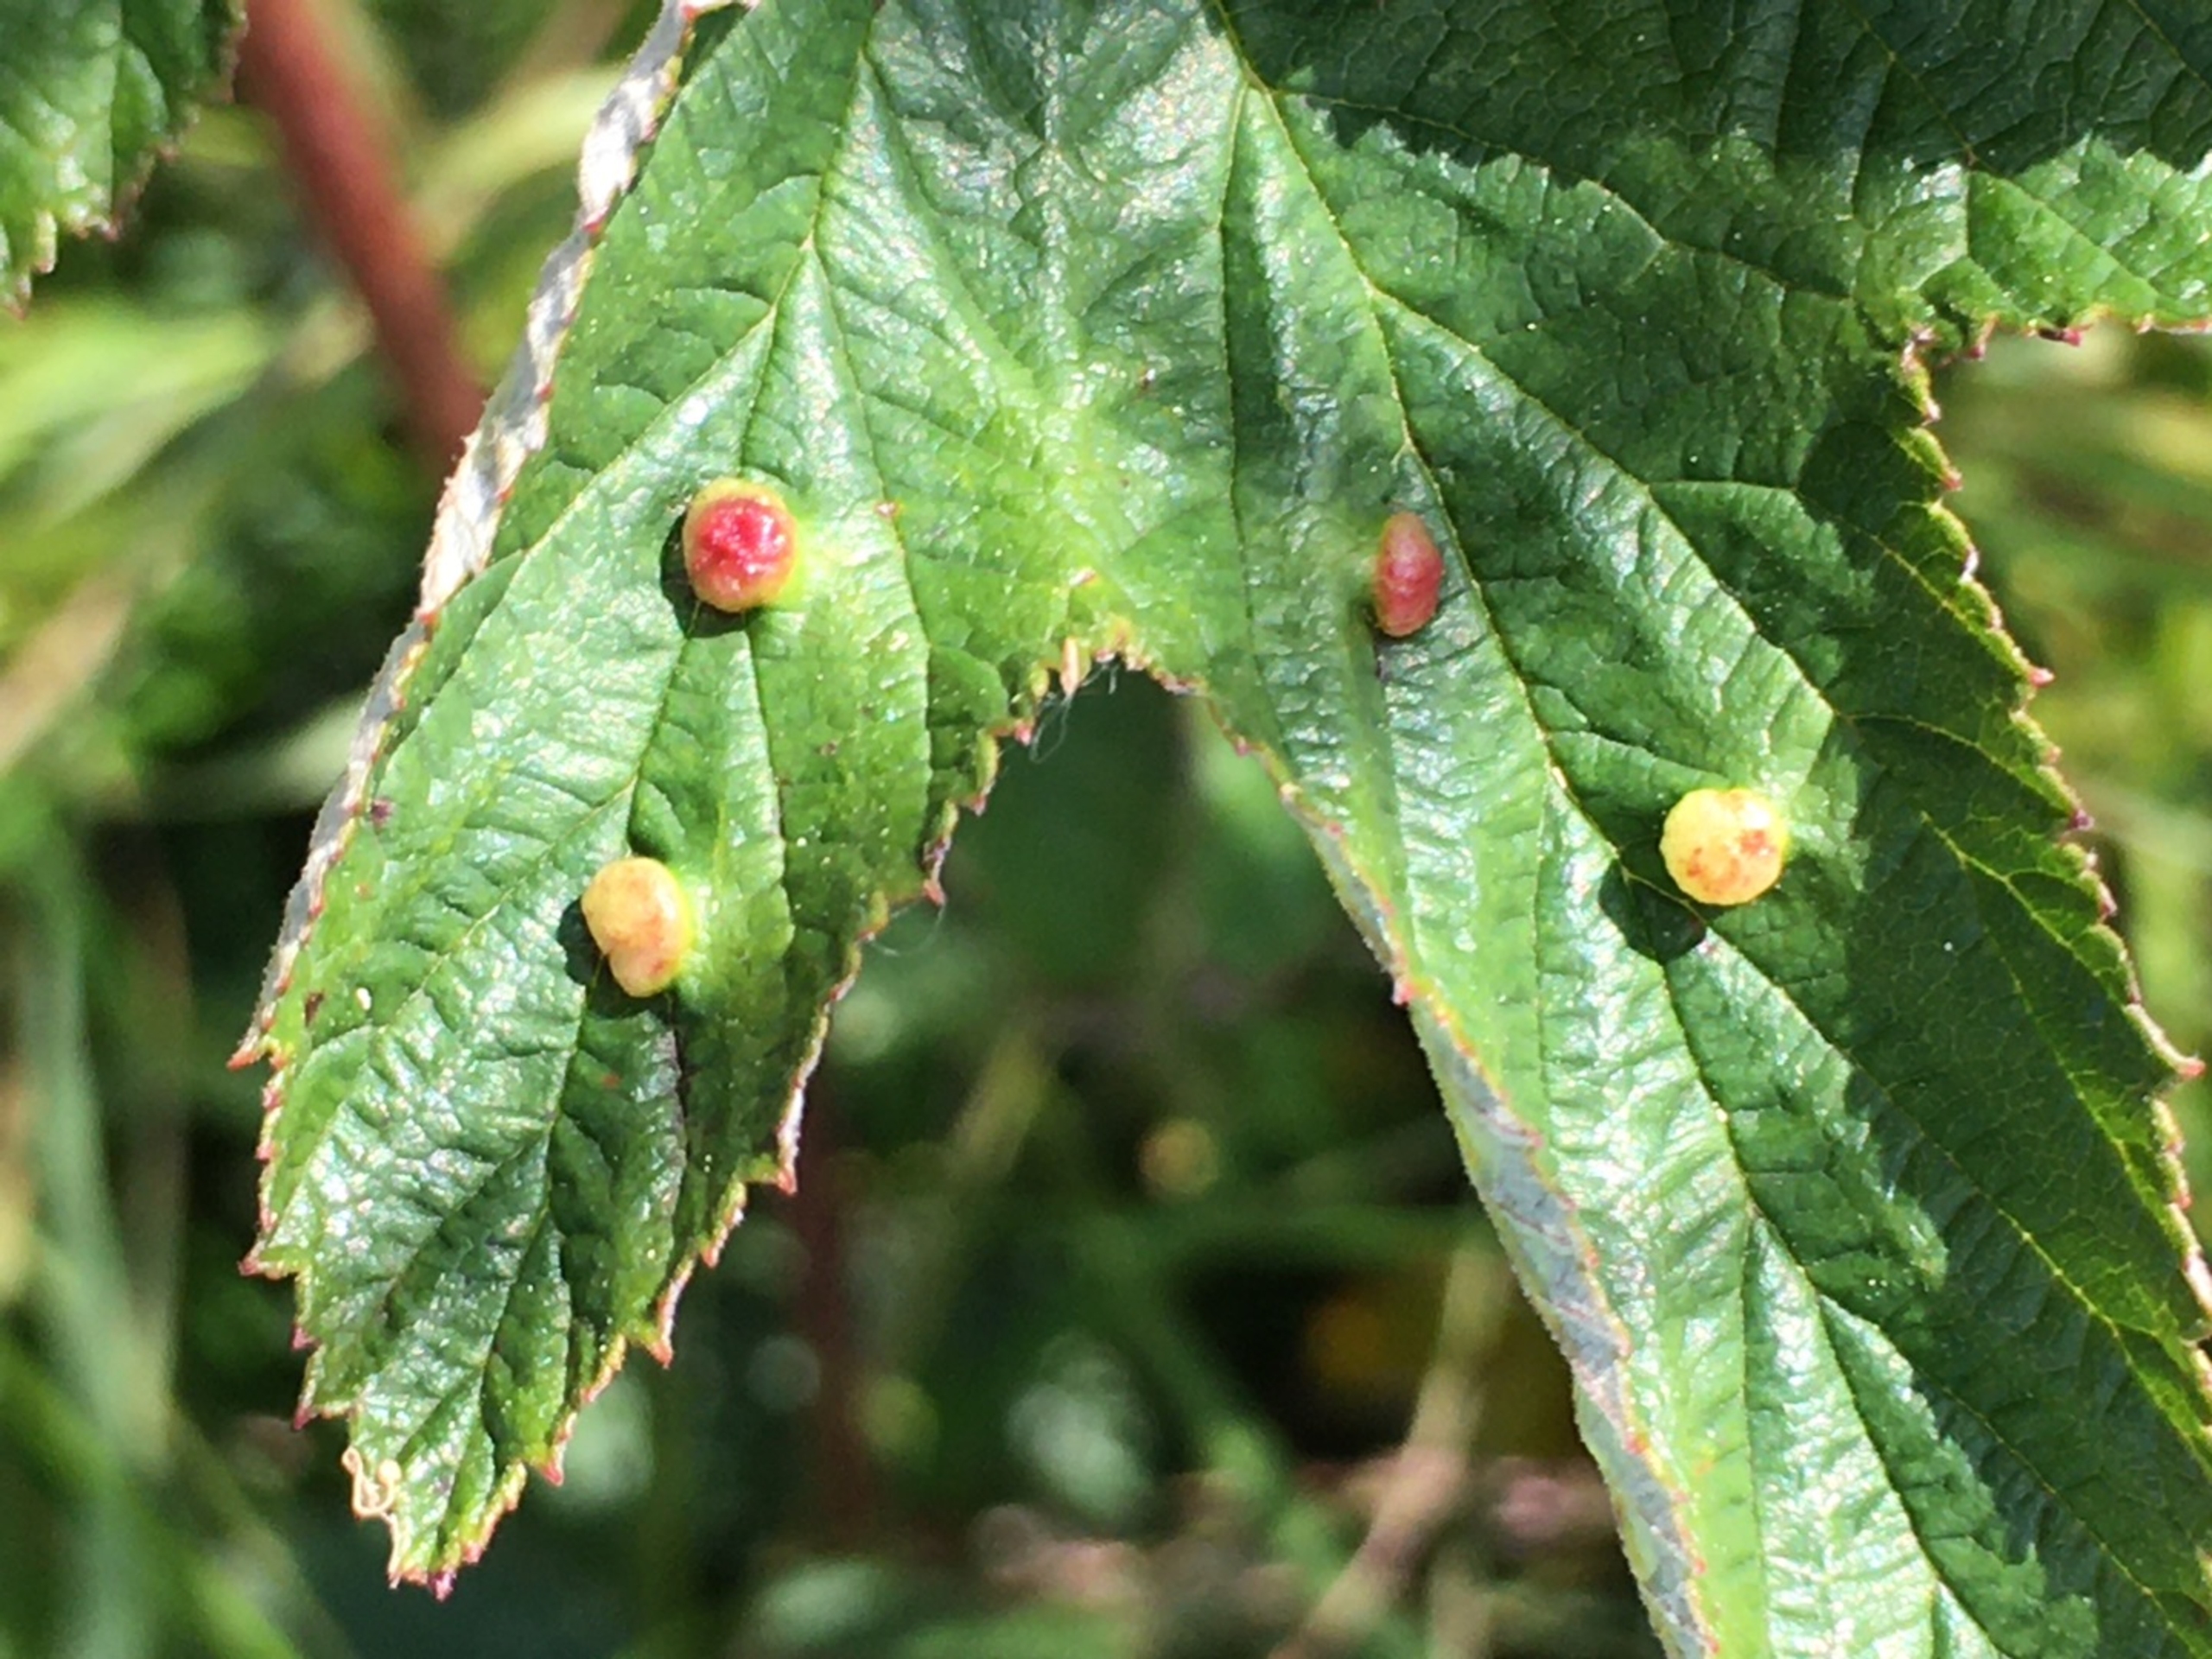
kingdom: Animalia
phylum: Arthropoda
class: Insecta
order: Diptera
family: Cecidomyiidae
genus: Dasineura
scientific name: Dasineura ulmaria
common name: Mjødurtgalmyg
